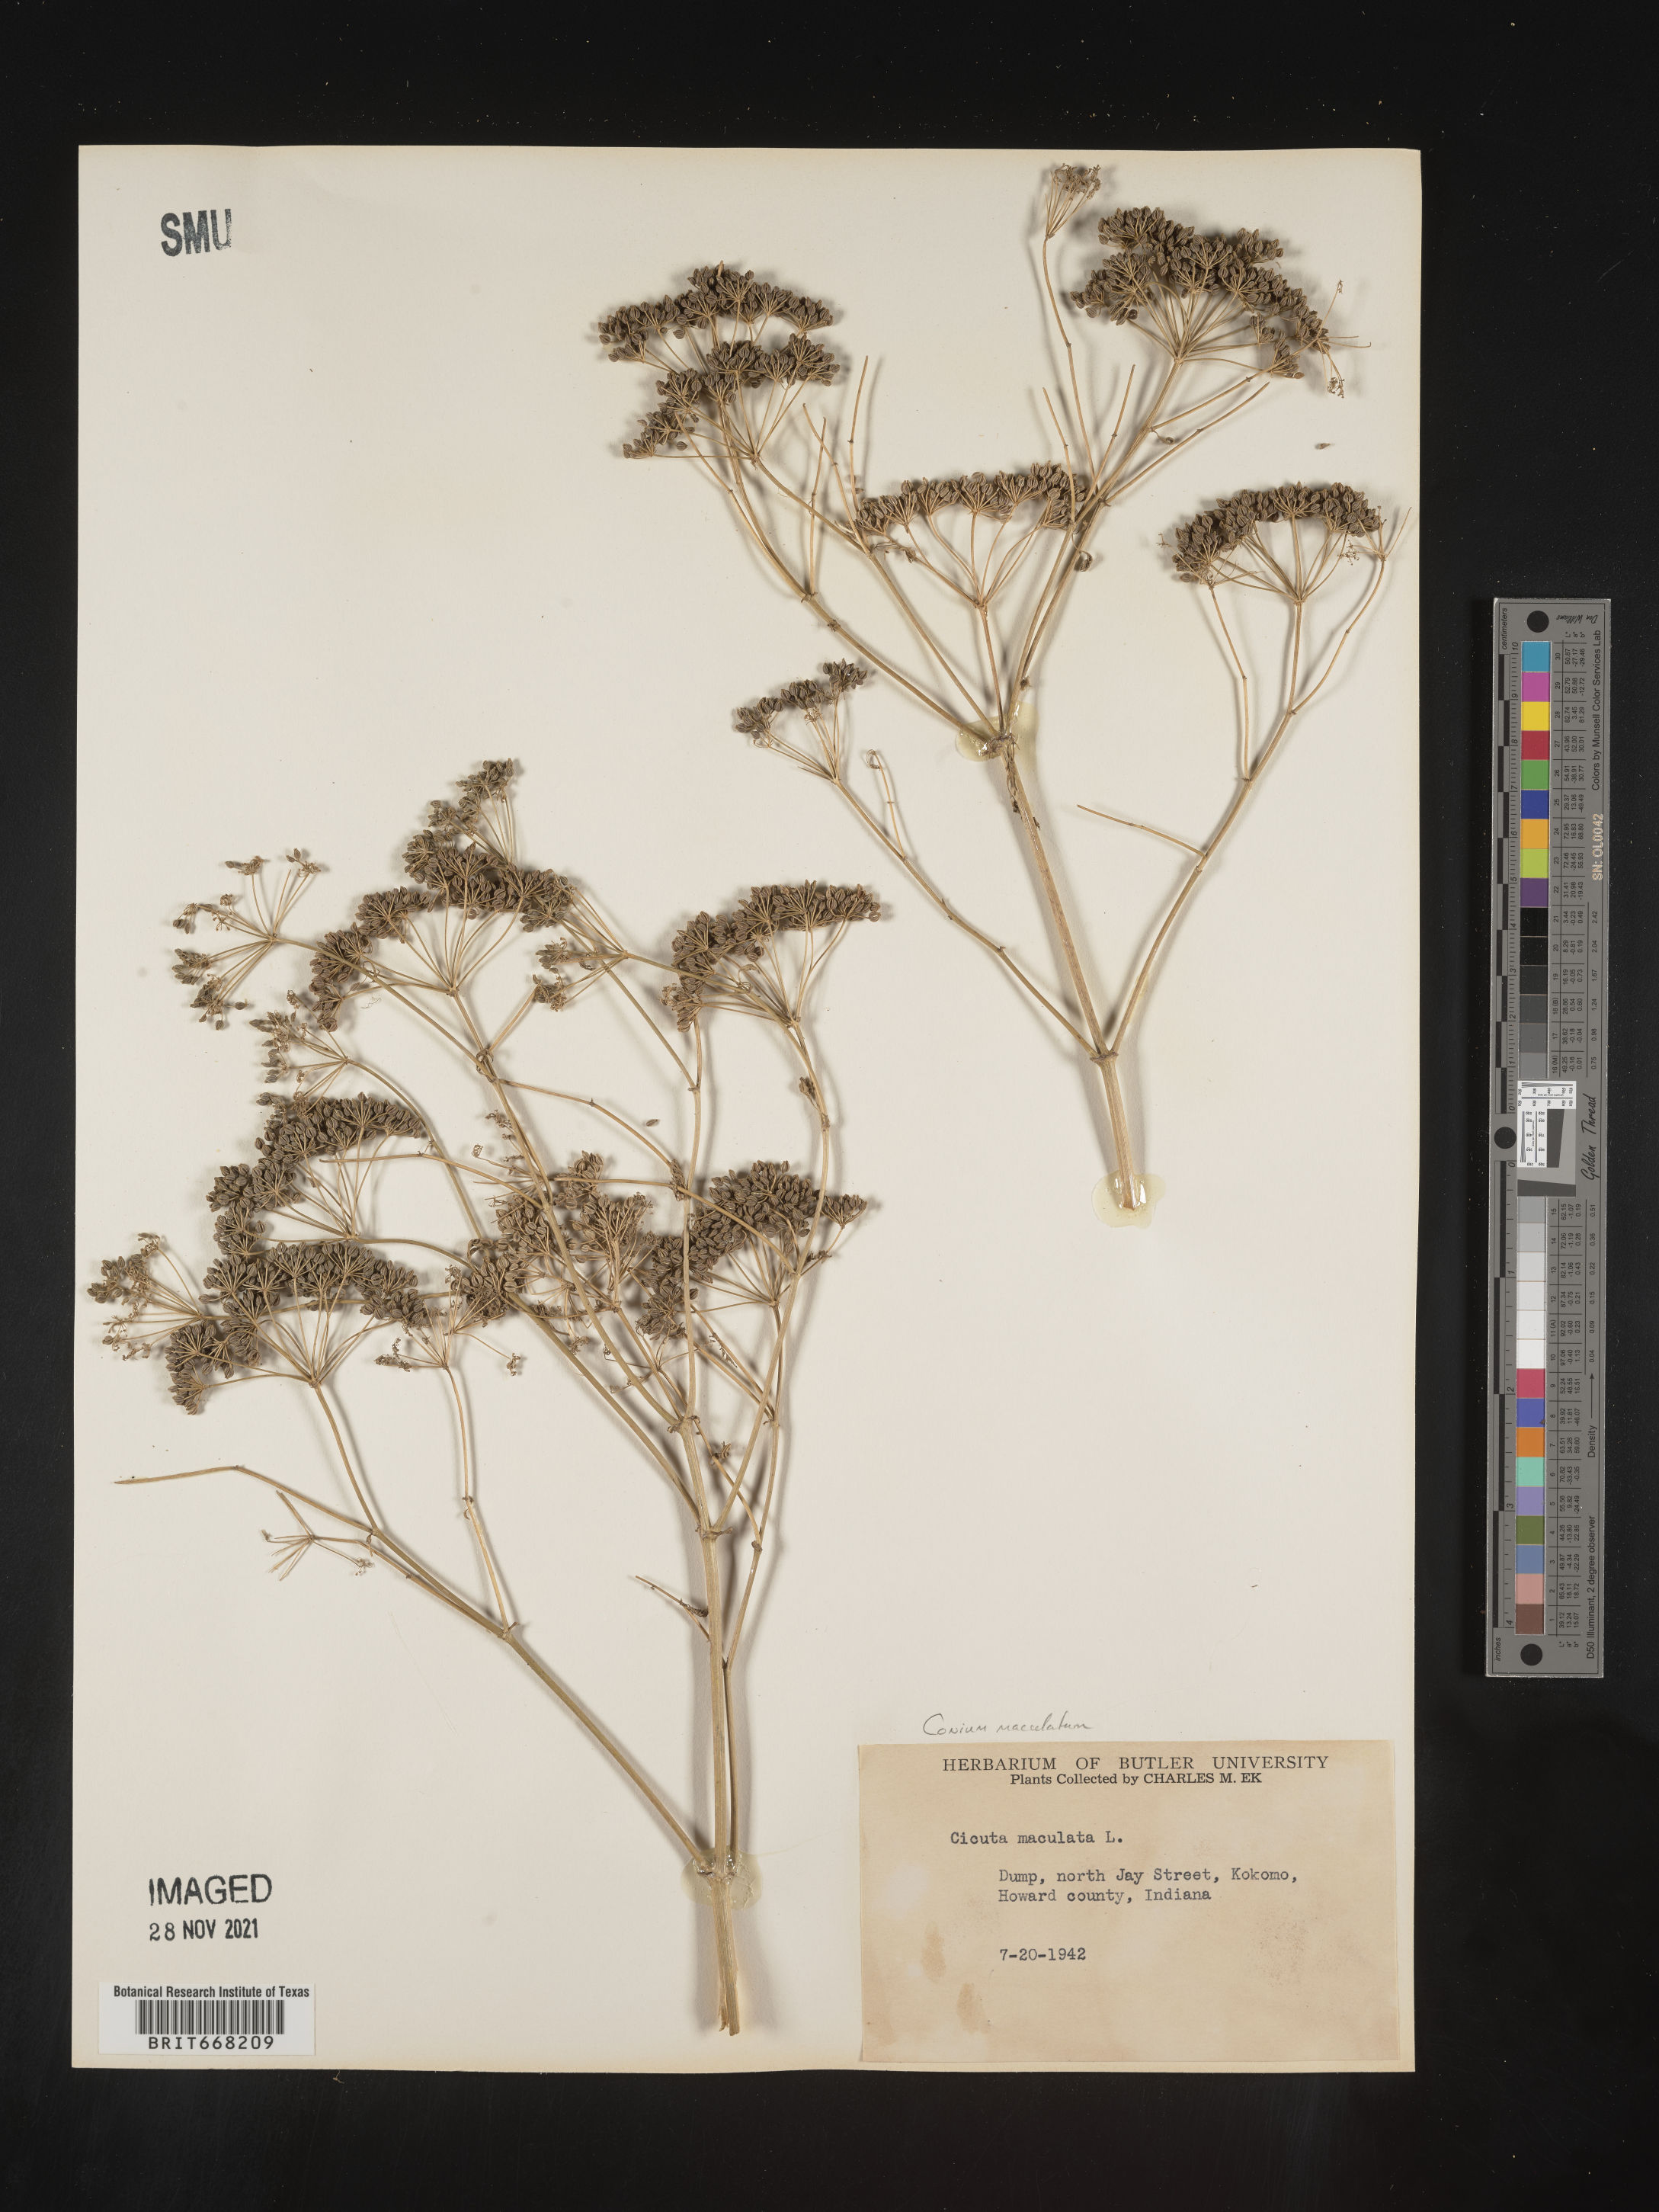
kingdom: Plantae
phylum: Tracheophyta
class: Magnoliopsida
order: Apiales
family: Apiaceae
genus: Conium
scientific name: Conium maculatum
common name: Hemlock
